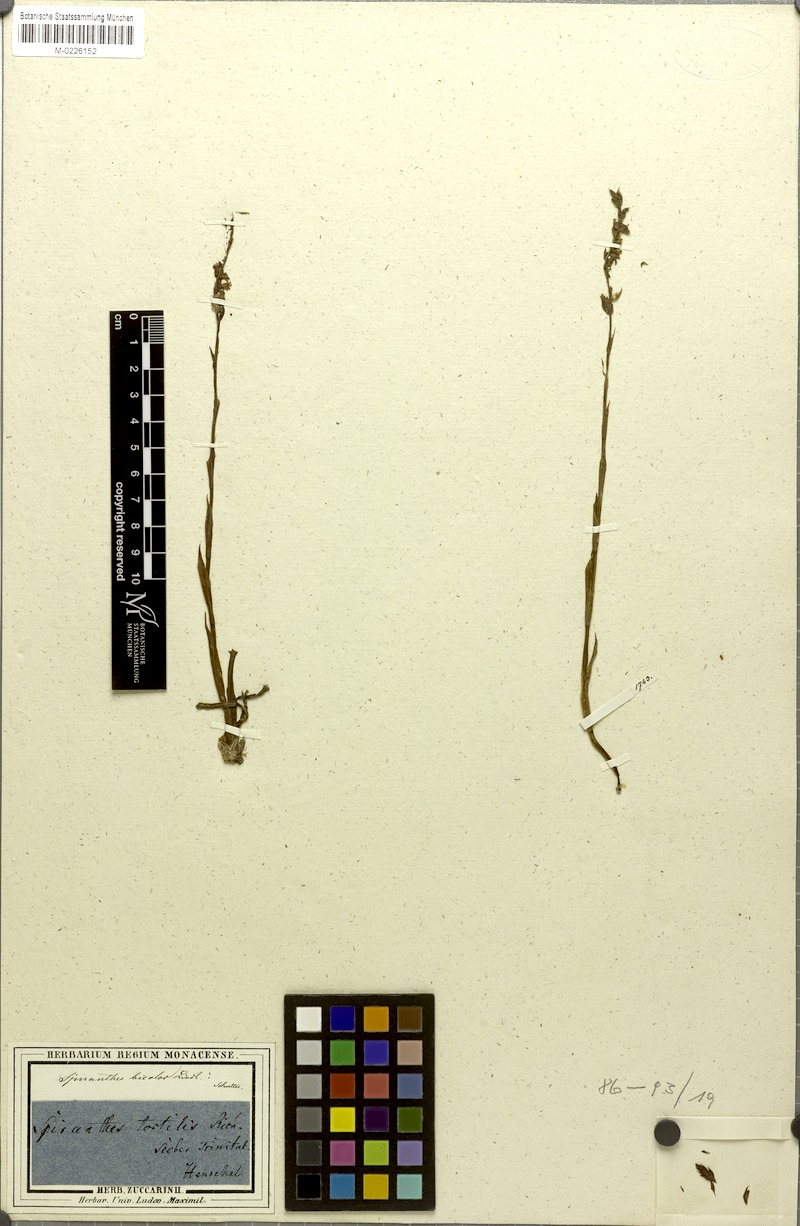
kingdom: Plantae
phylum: Tracheophyta
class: Liliopsida
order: Asparagales
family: Orchidaceae
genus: Spiranthes
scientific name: Spiranthes torta
